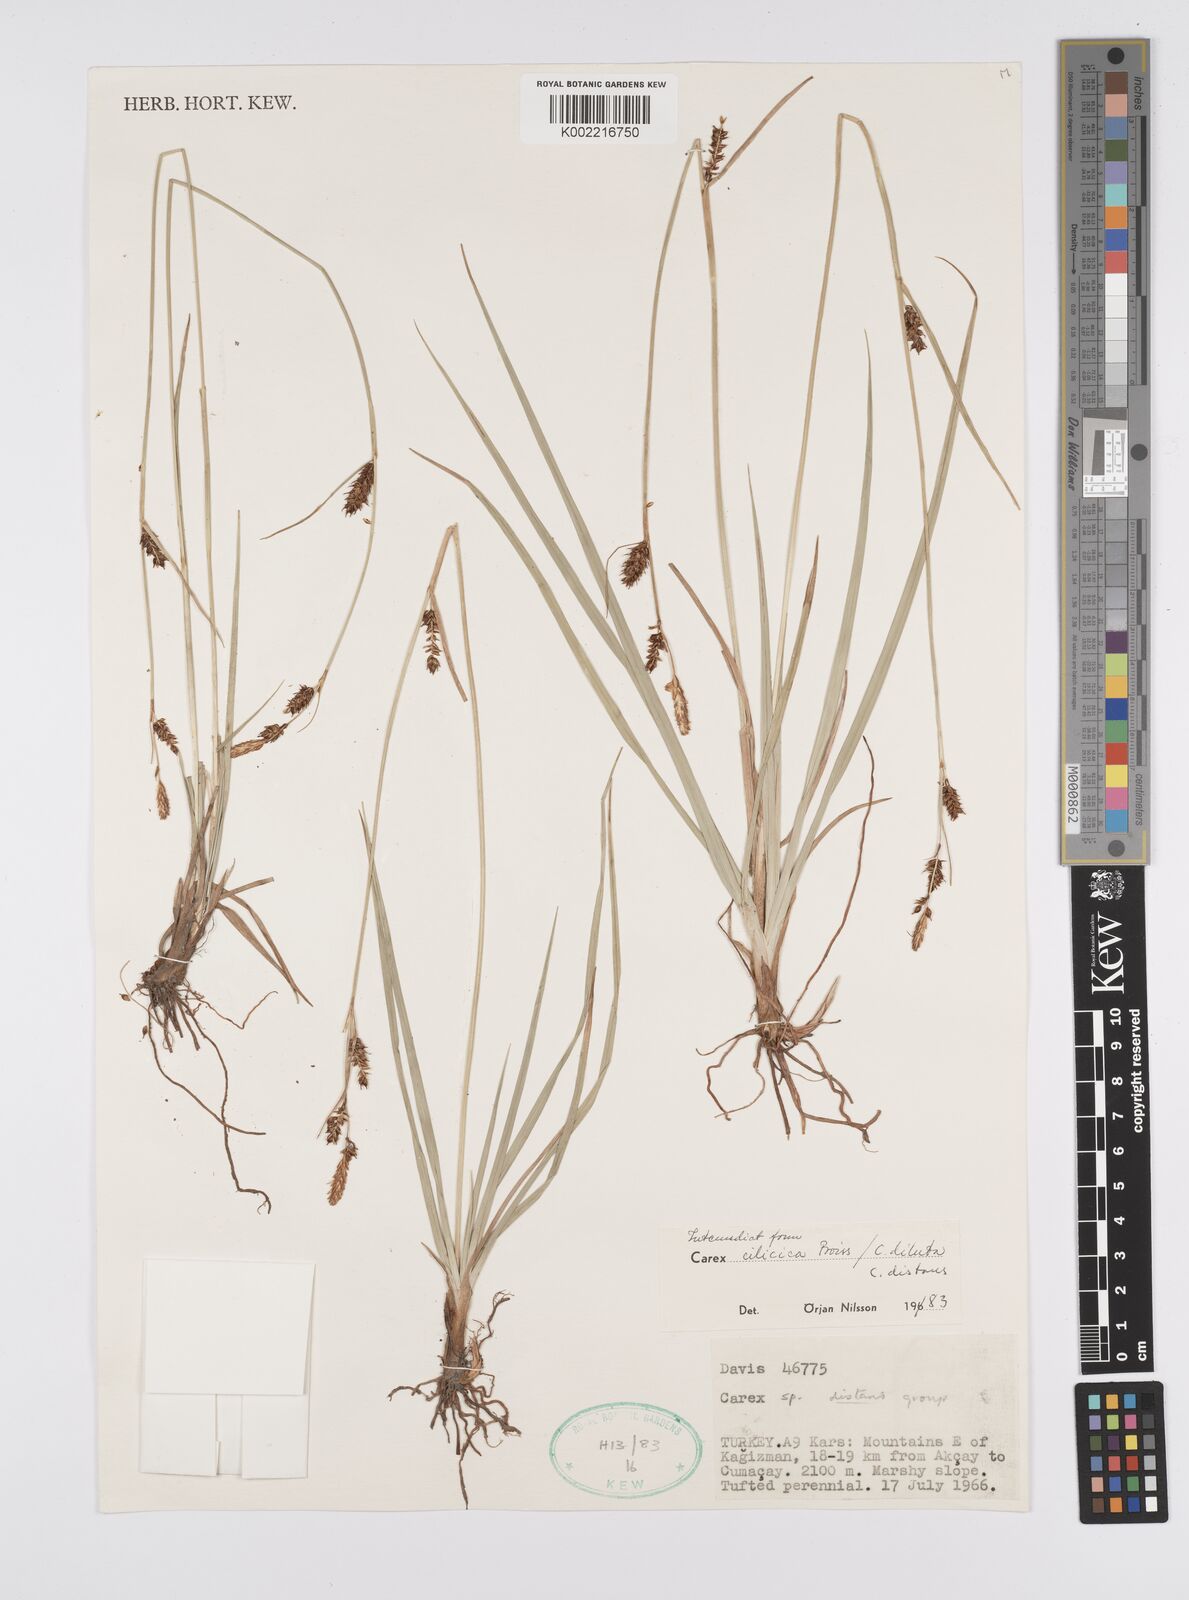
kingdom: Plantae
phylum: Tracheophyta
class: Liliopsida
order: Poales
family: Cyperaceae
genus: Carex
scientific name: Carex cilicica
